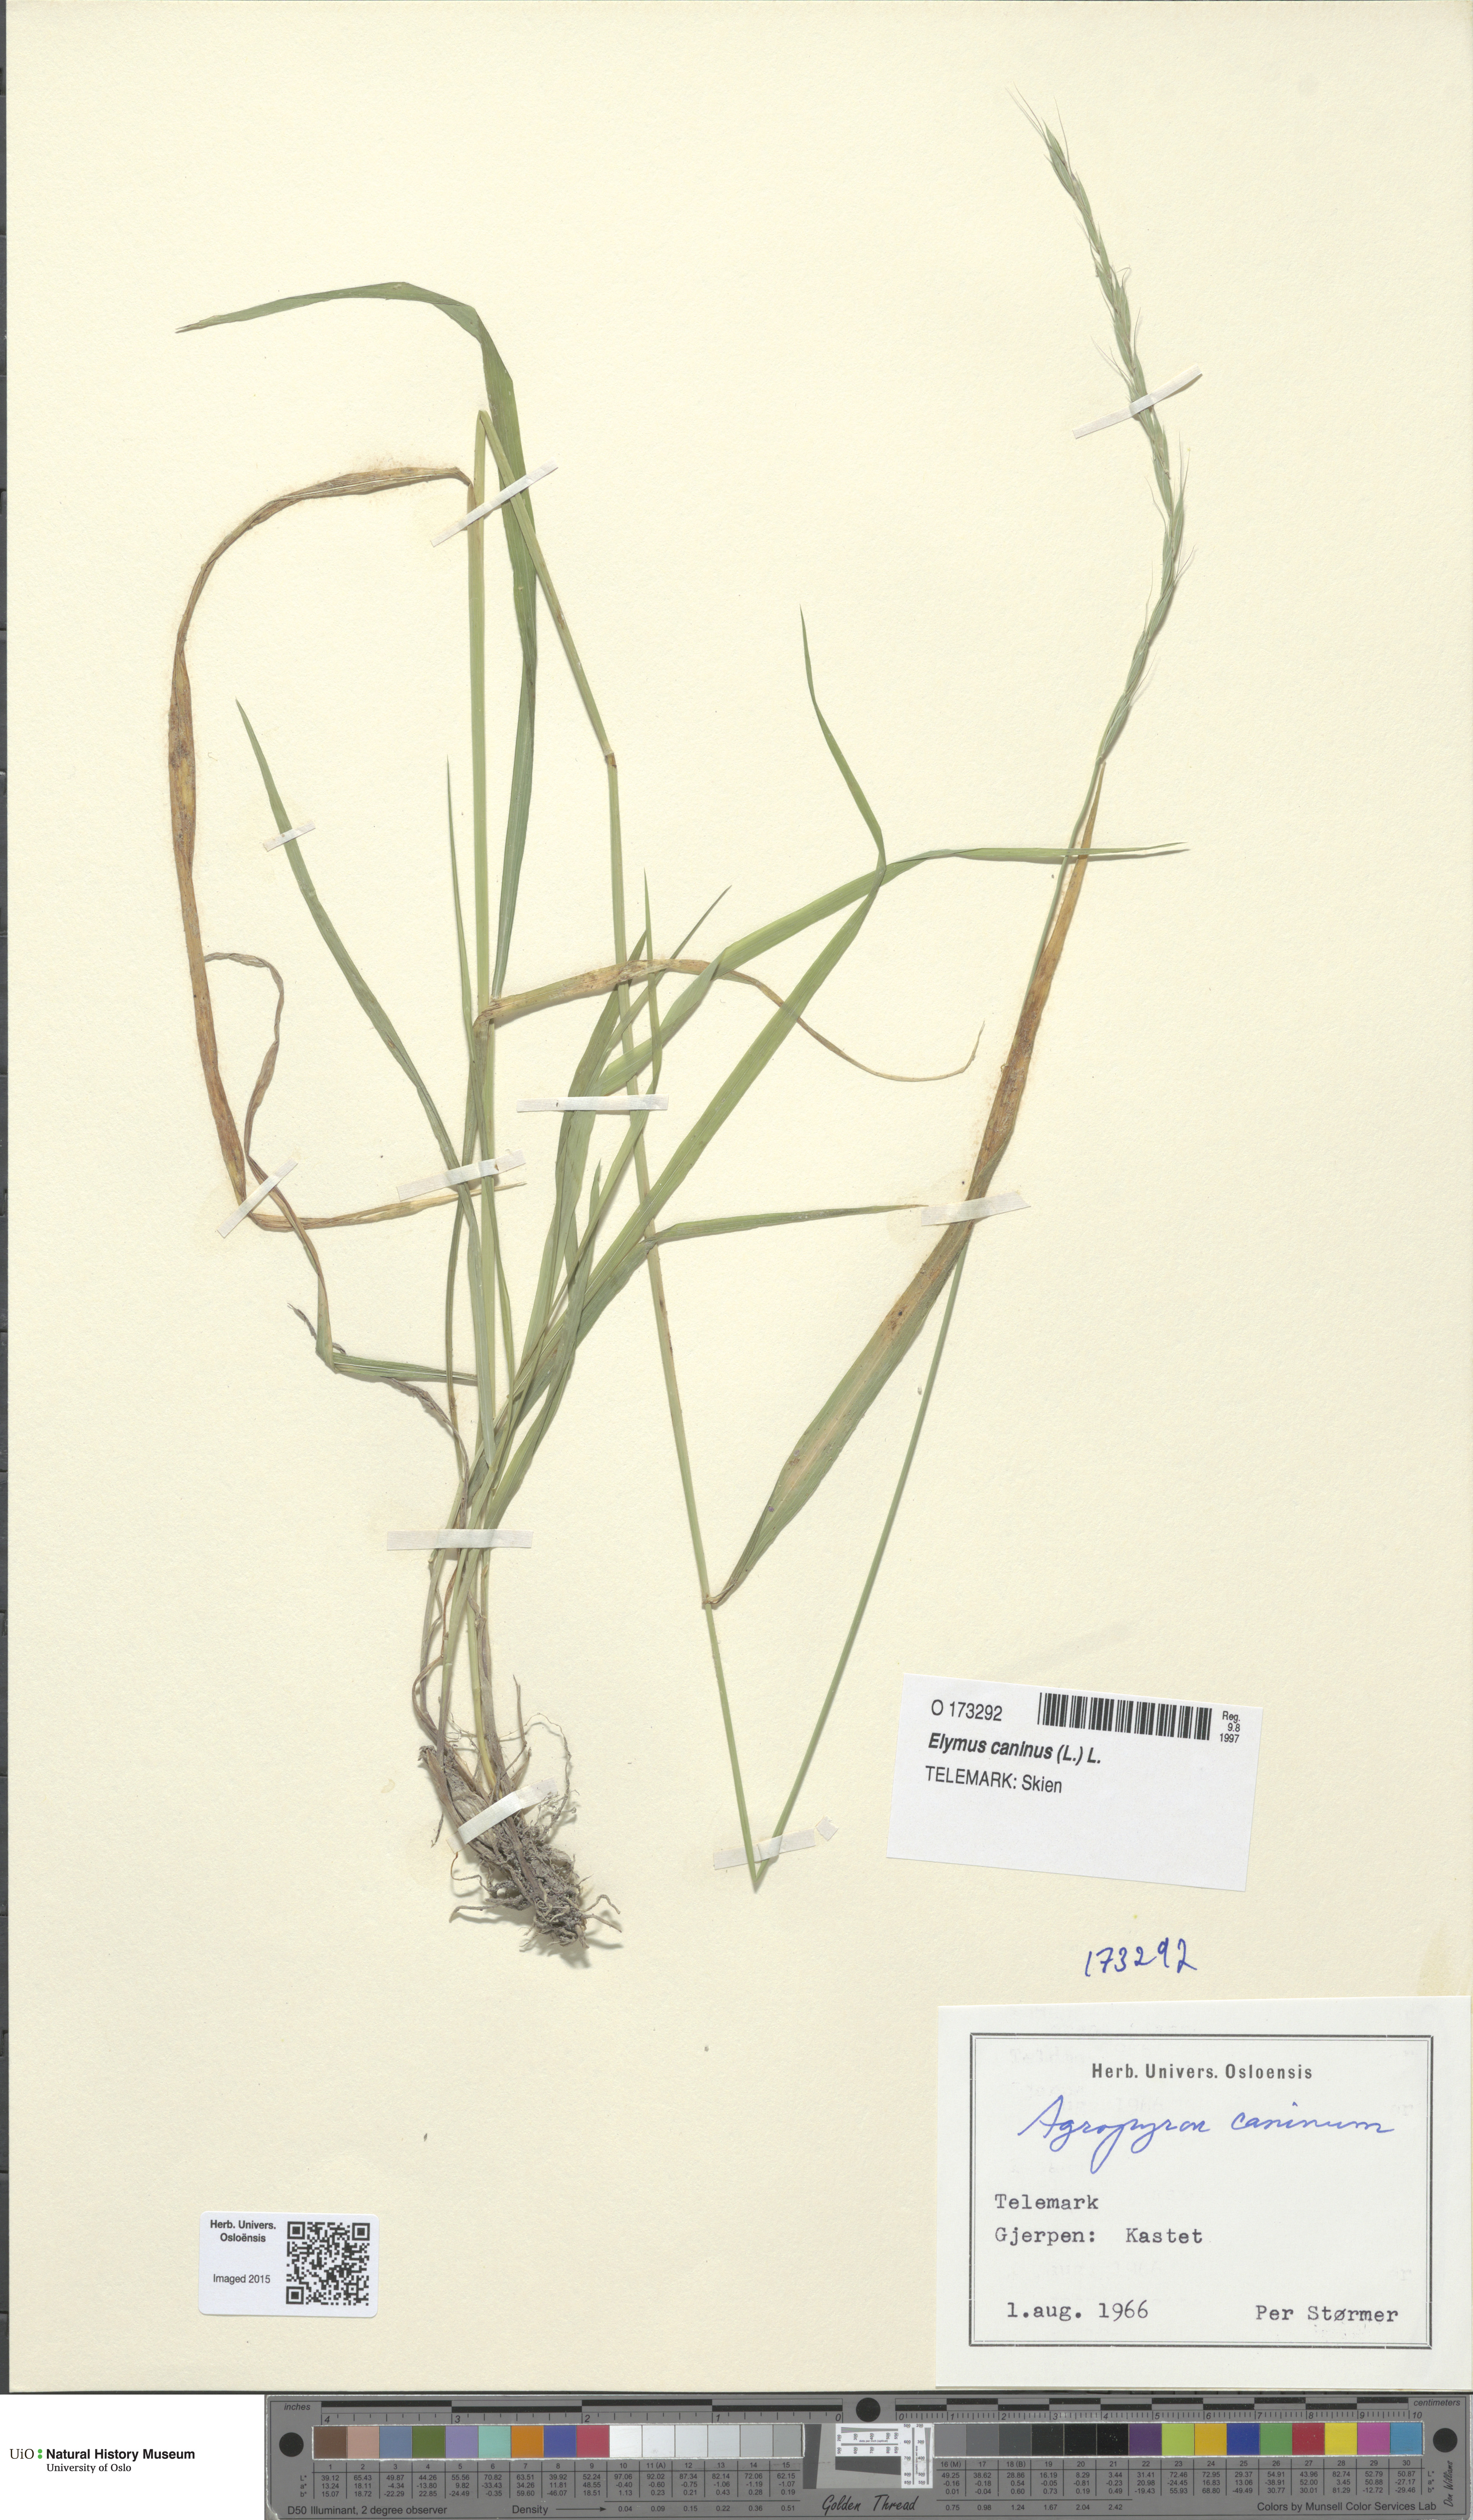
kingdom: Plantae
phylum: Tracheophyta
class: Liliopsida
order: Poales
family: Poaceae
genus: Elymus
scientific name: Elymus caninus
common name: Bearded couch
